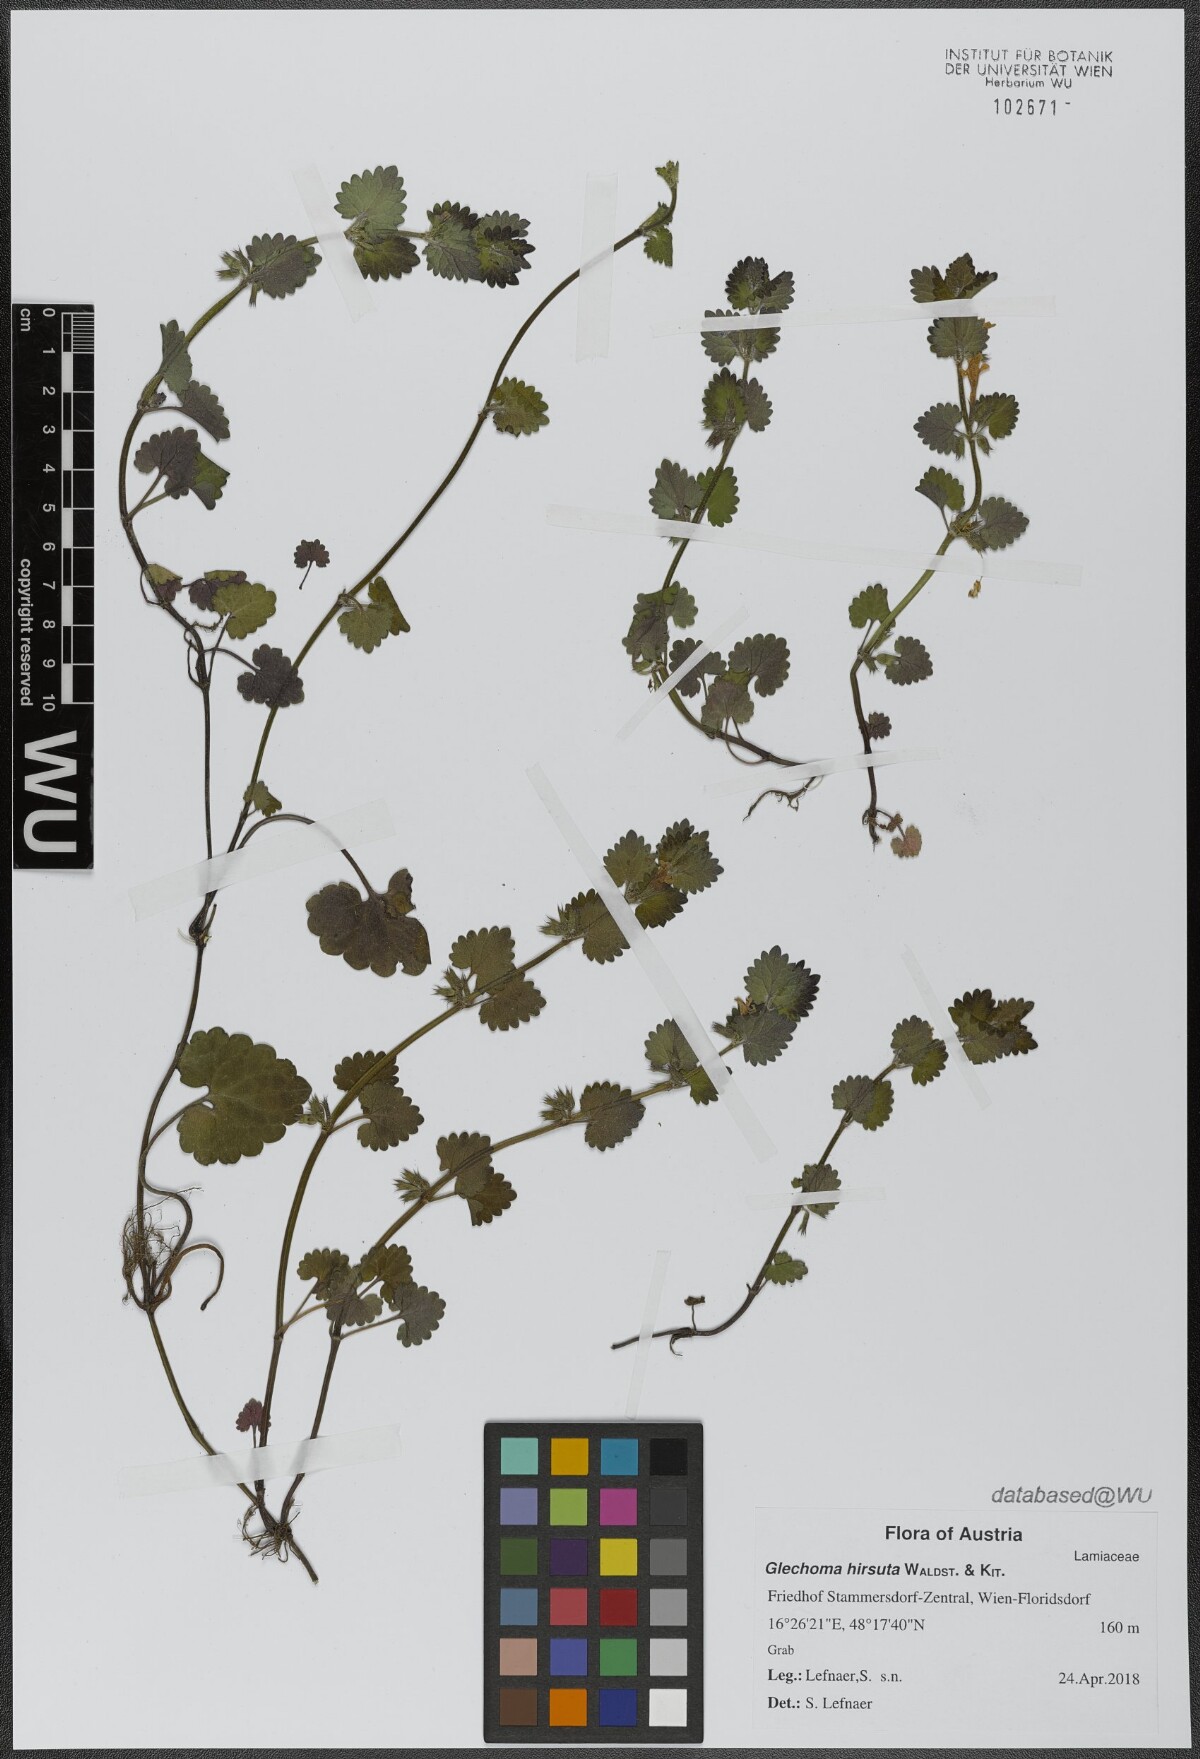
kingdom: Plantae
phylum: Tracheophyta
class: Magnoliopsida
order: Lamiales
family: Lamiaceae
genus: Glechoma
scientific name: Glechoma hirsuta
